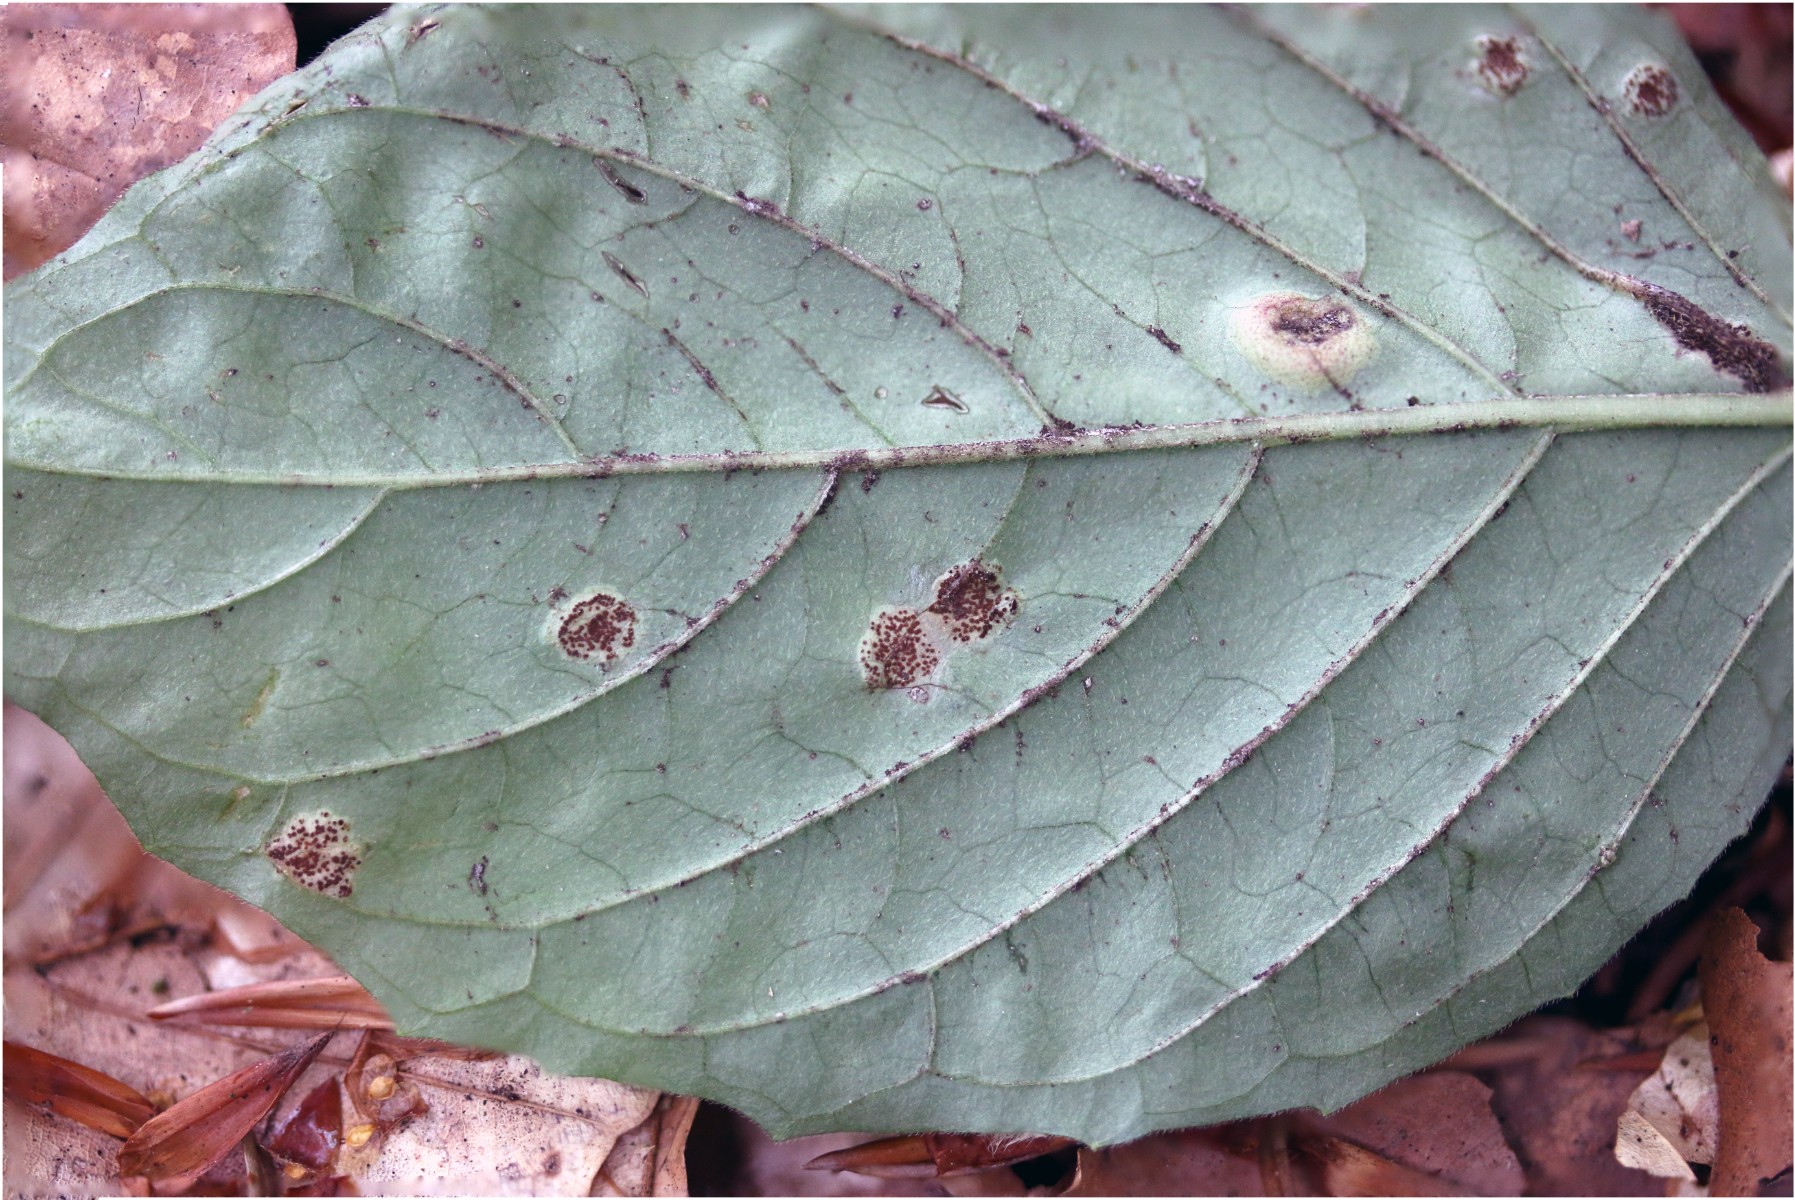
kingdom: Fungi
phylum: Basidiomycota
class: Pucciniomycetes
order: Pucciniales
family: Pucciniaceae
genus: Puccinia
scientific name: Puccinia circaeae
